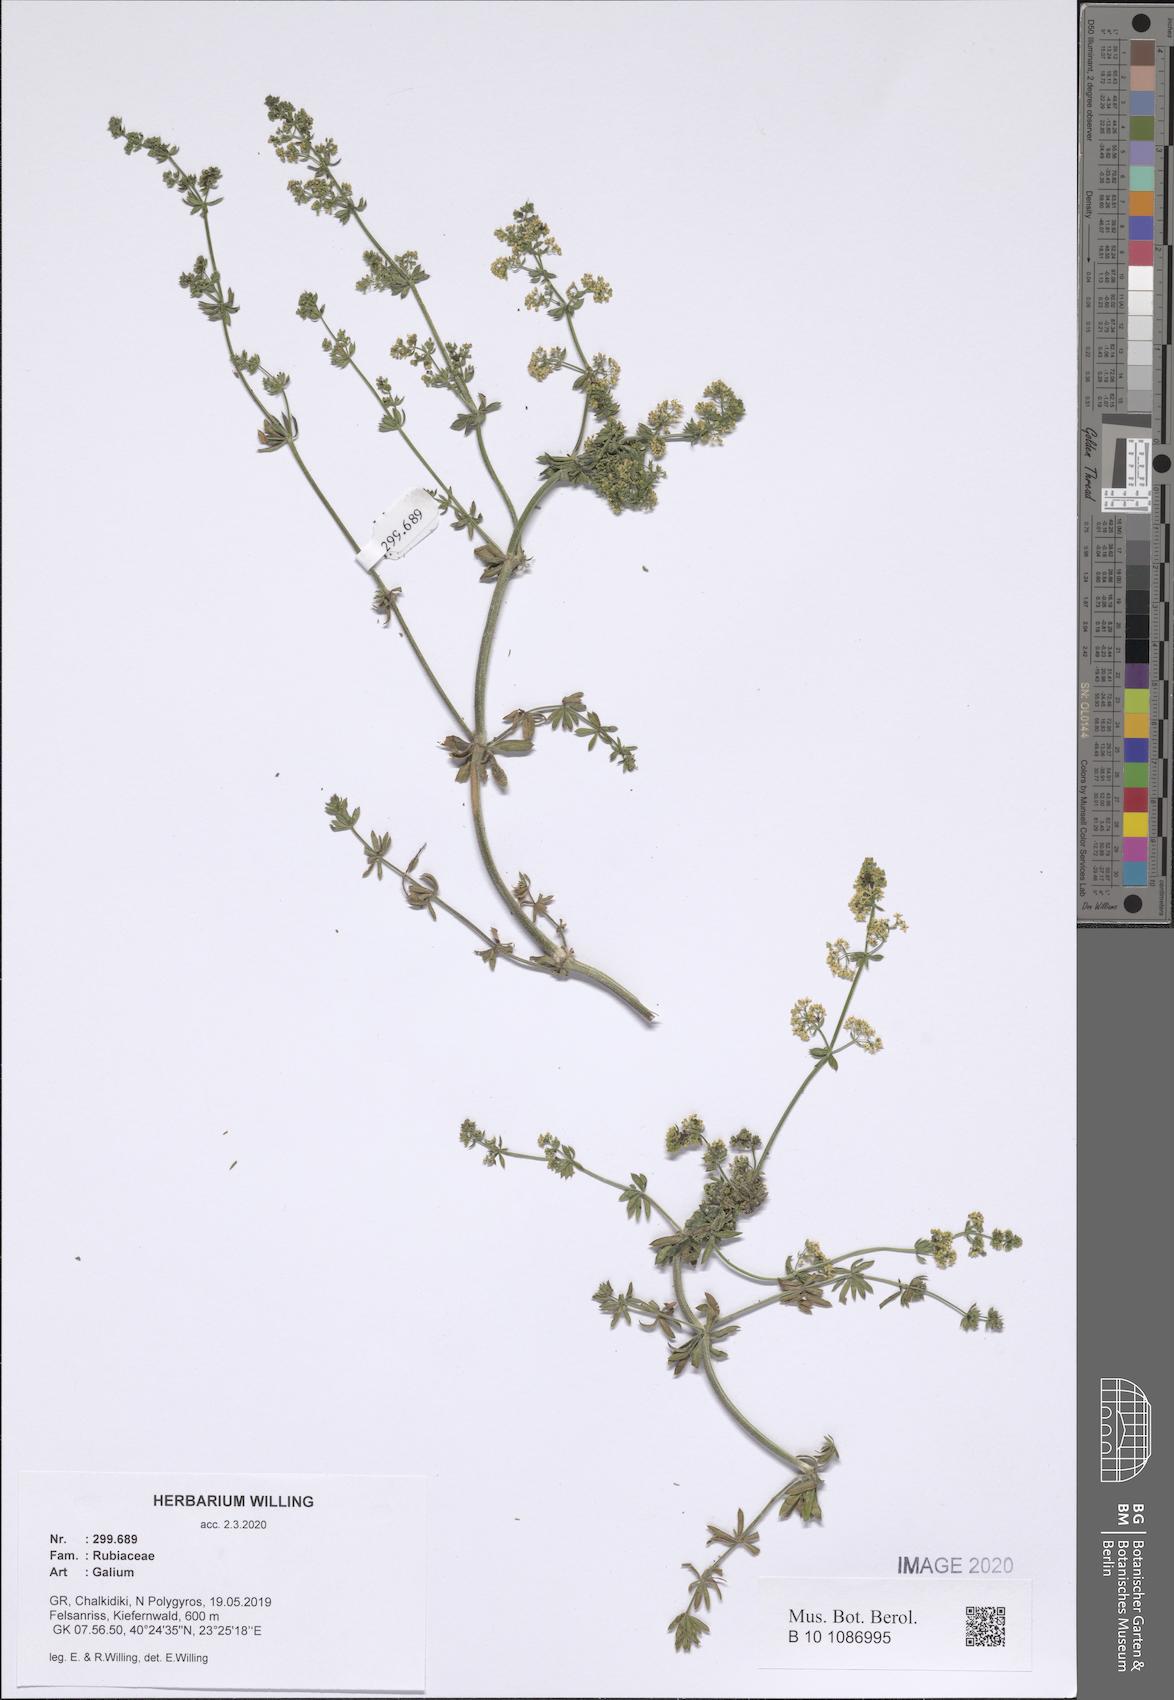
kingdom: Plantae
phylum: Tracheophyta
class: Magnoliopsida
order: Gentianales
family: Rubiaceae
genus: Galium
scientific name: Galium
